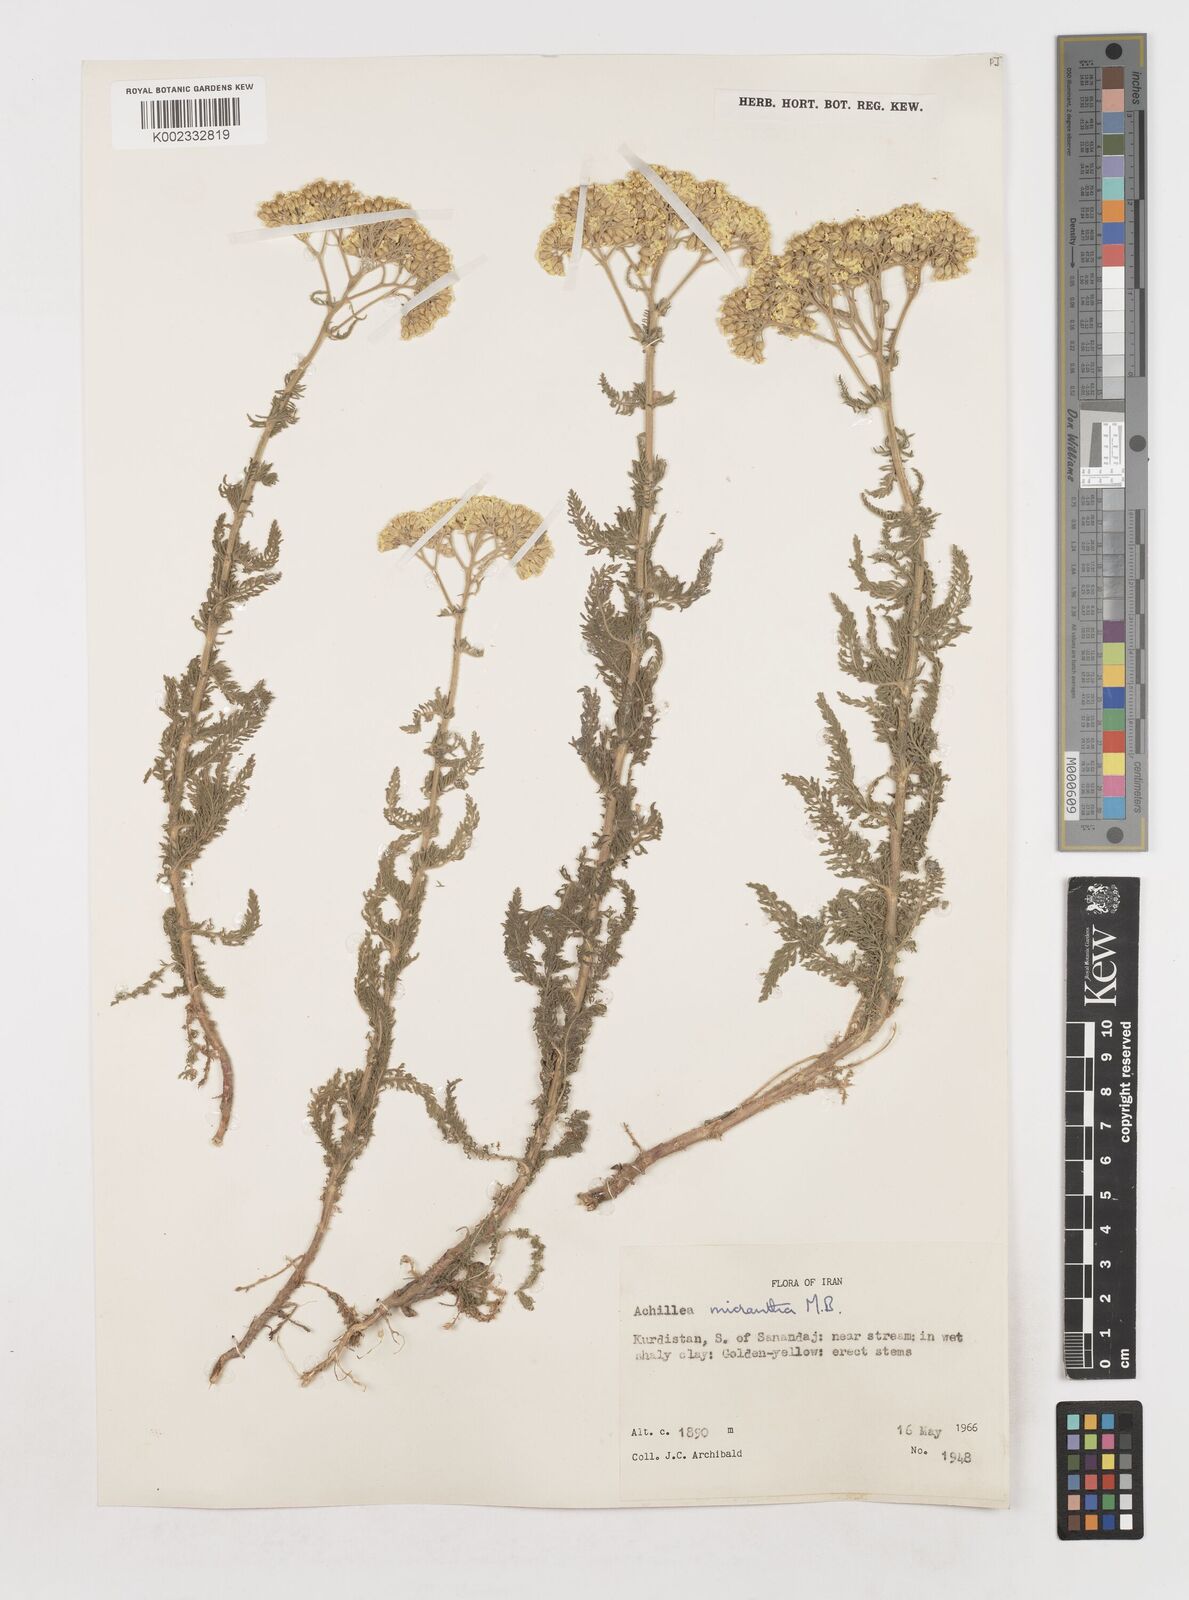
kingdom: Plantae
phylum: Tracheophyta
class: Magnoliopsida
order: Asterales
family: Asteraceae
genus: Achillea
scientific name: Achillea arabica
